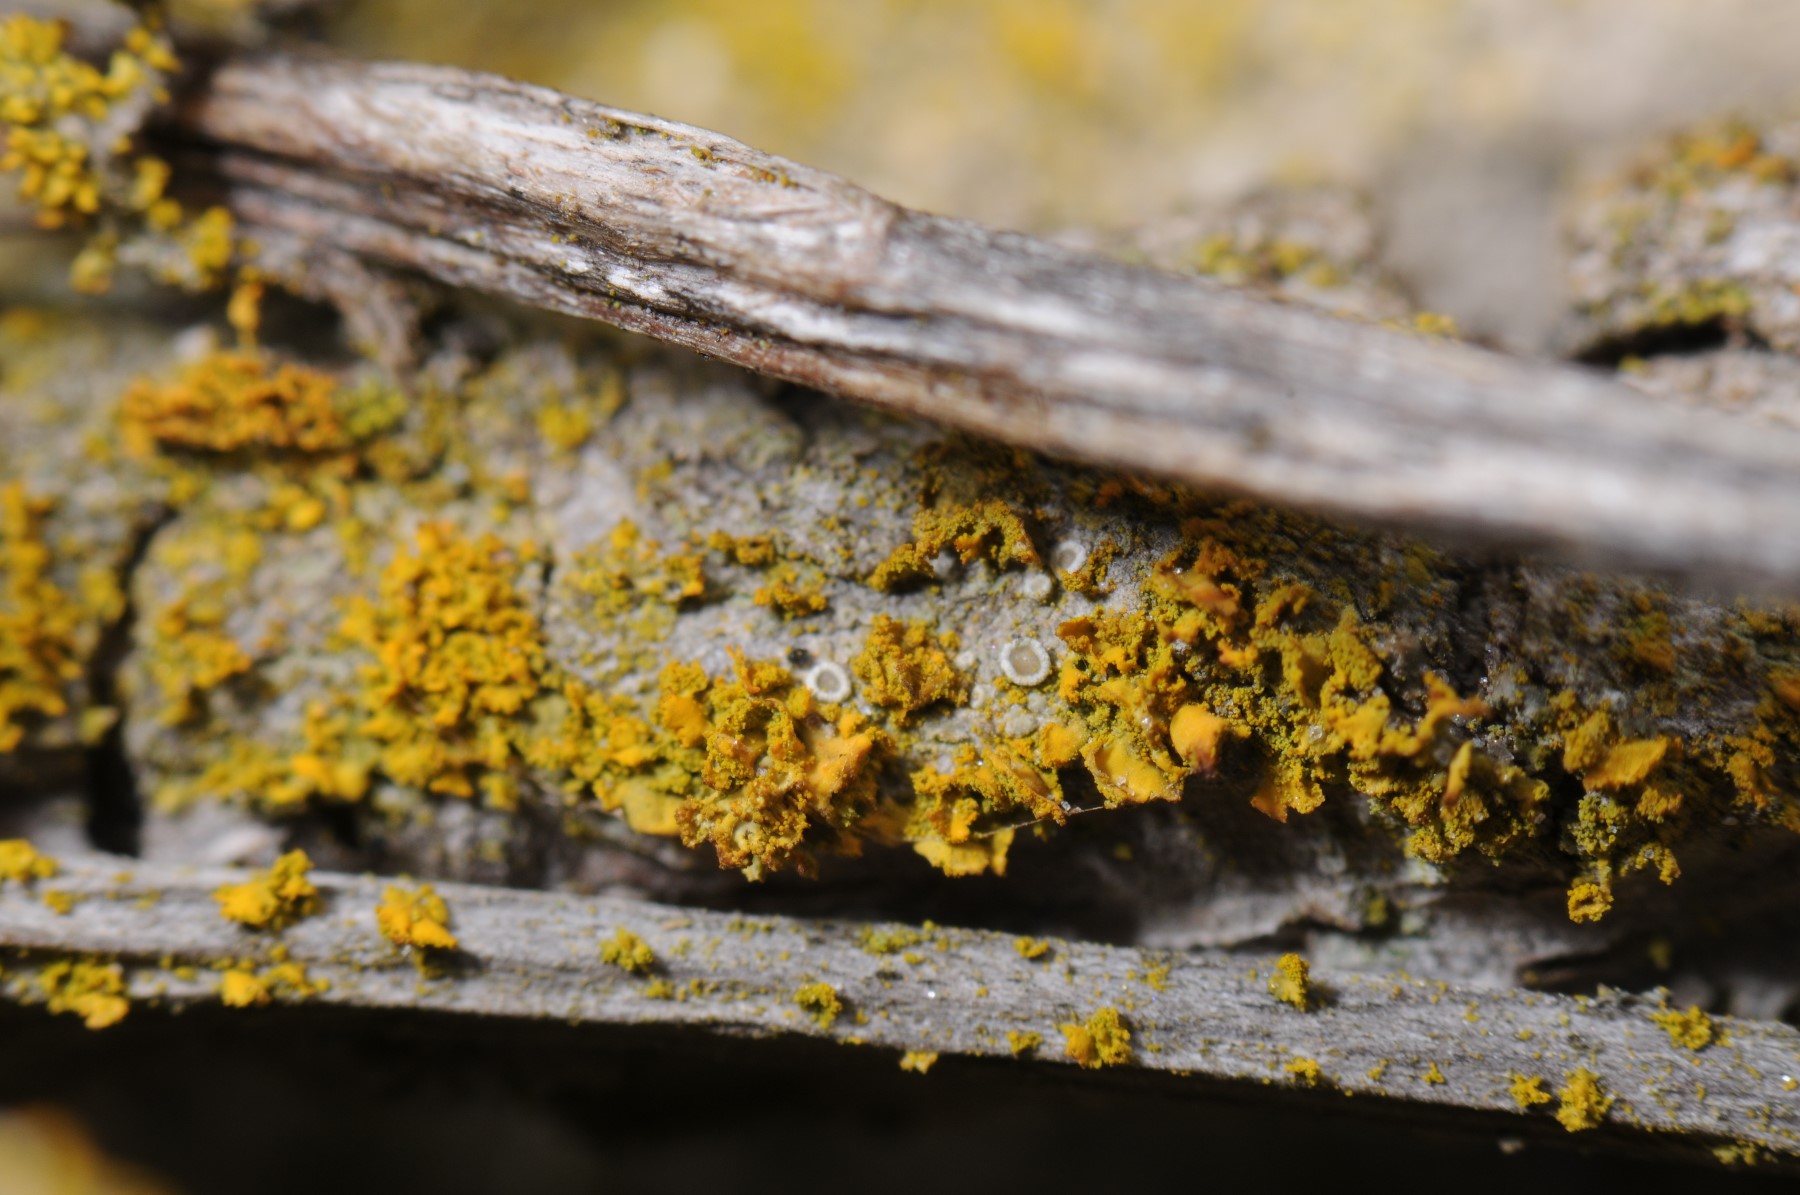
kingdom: Fungi
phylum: Ascomycota
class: Lecanoromycetes
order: Teloschistales
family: Teloschistaceae
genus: Polycauliona
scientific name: Polycauliona ucrainica
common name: småbladet orangelav
